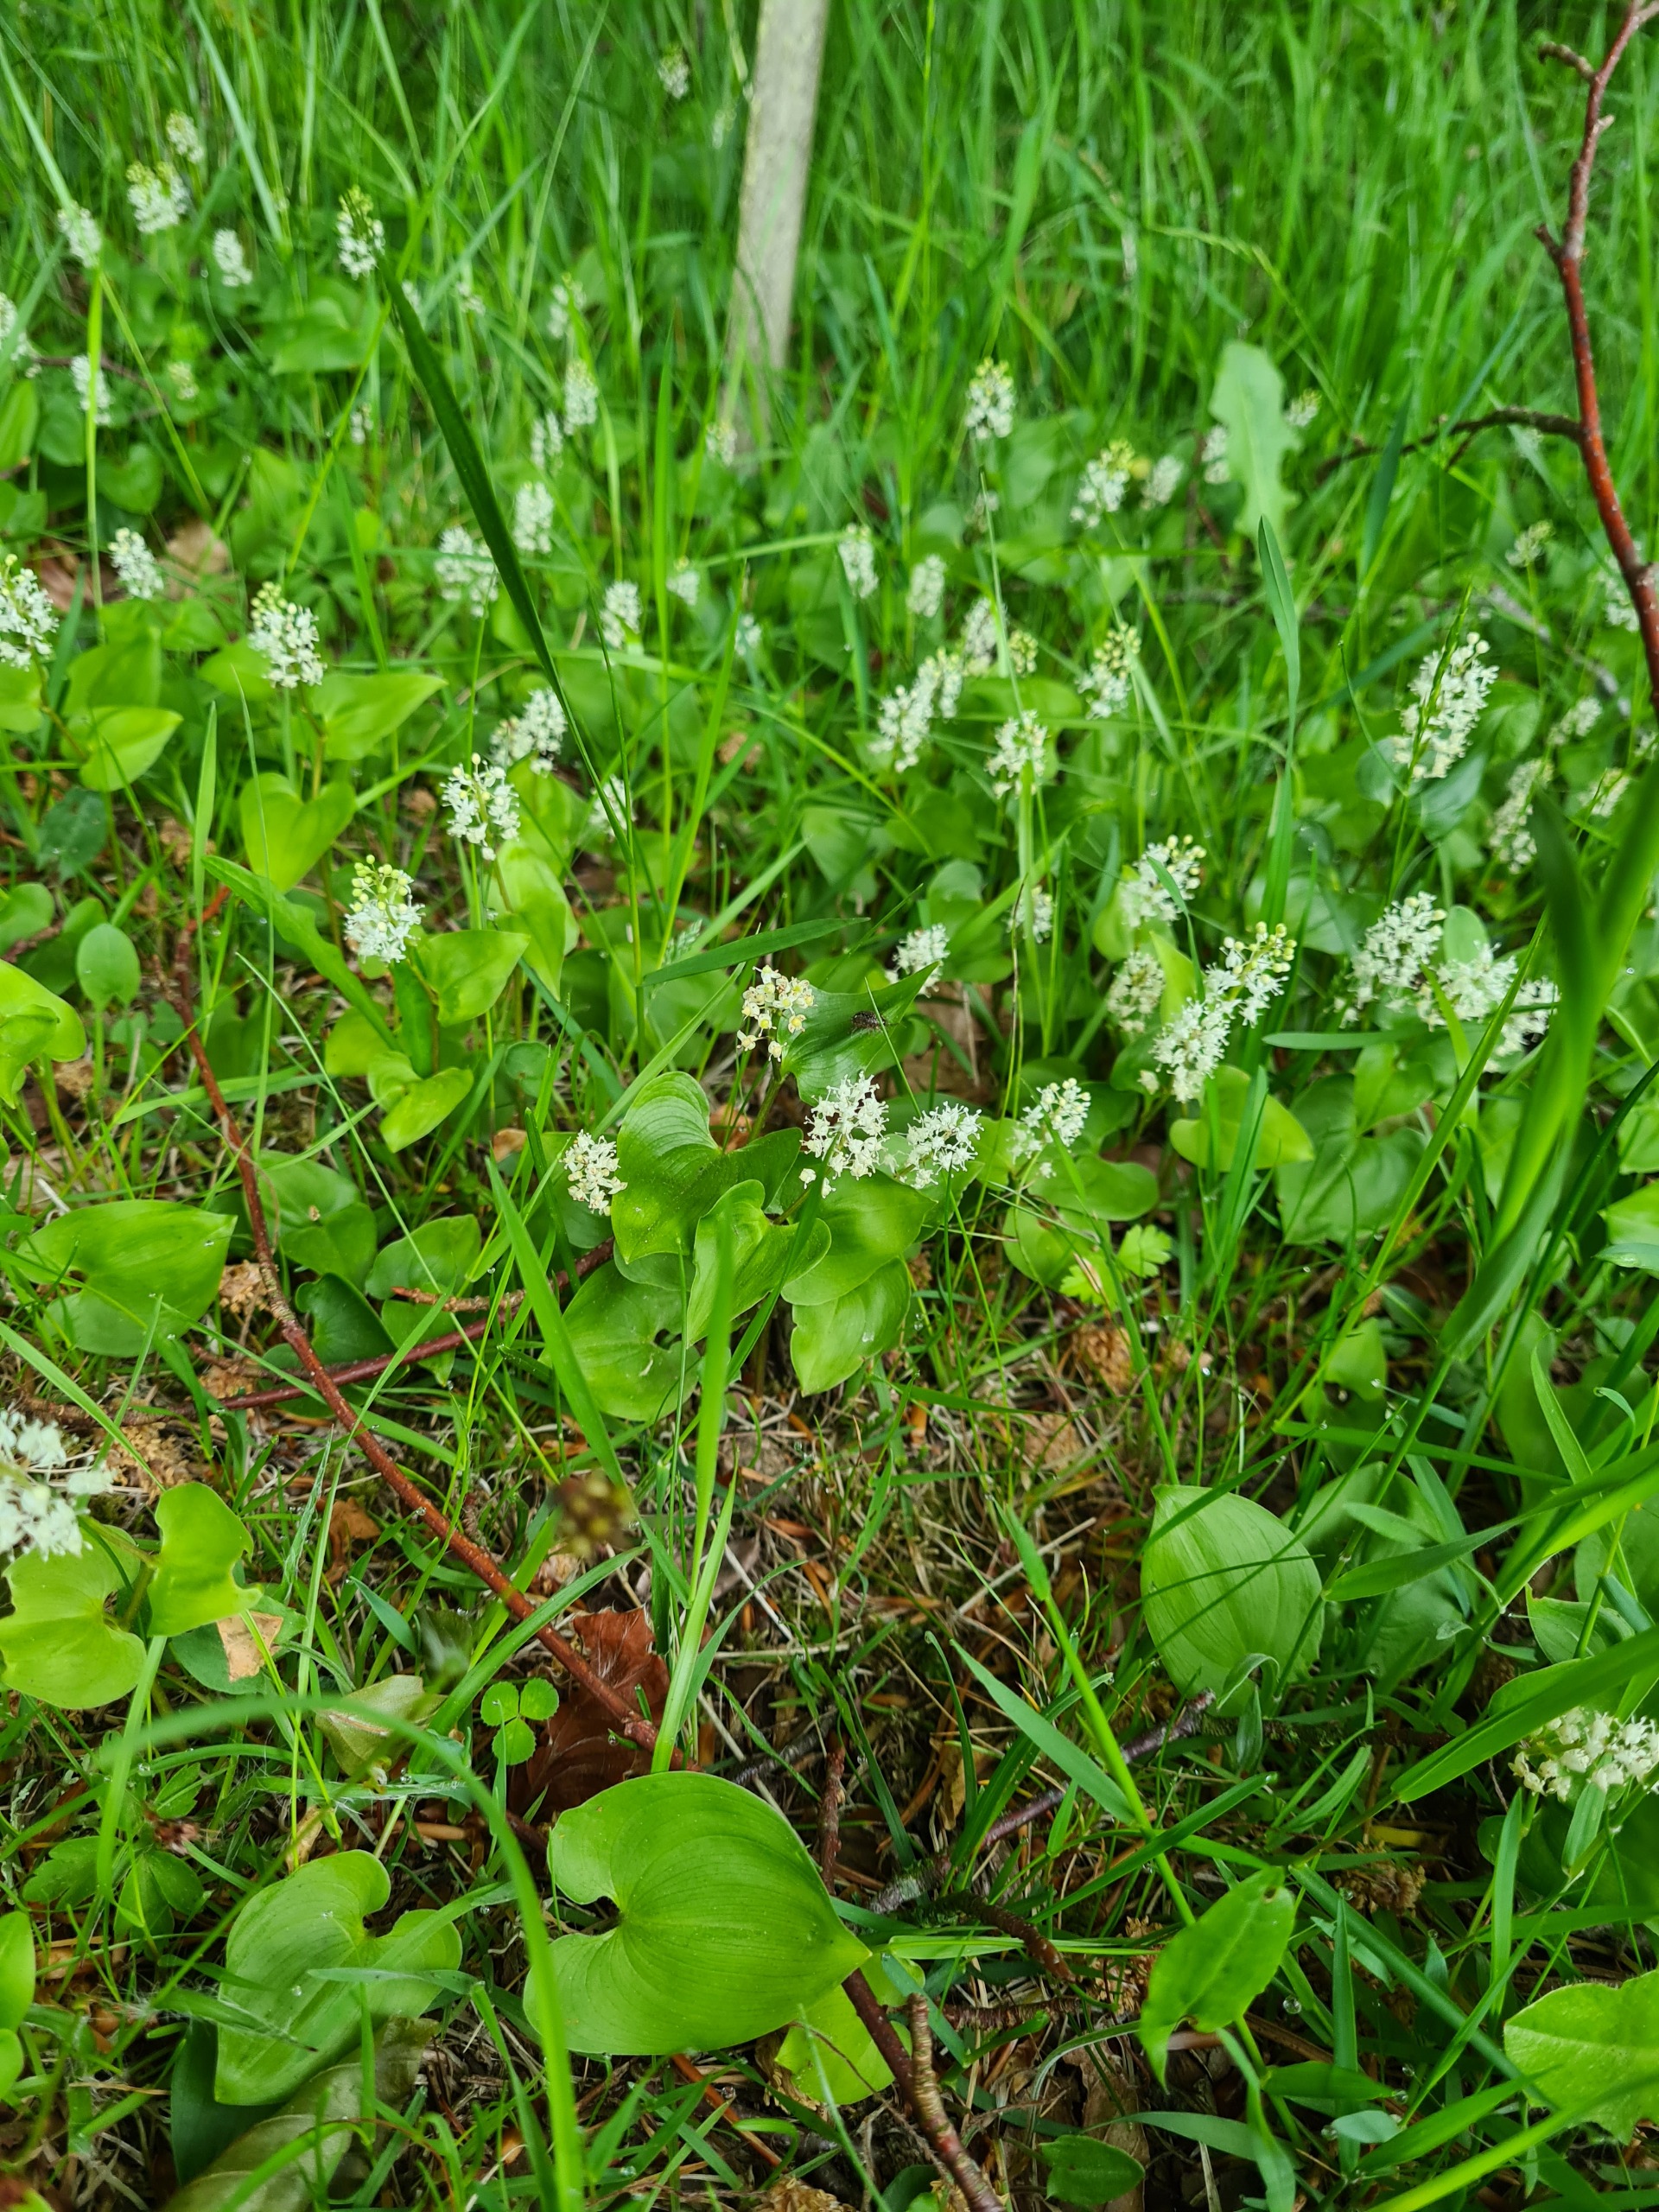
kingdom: Plantae
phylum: Tracheophyta
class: Liliopsida
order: Asparagales
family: Asparagaceae
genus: Maianthemum
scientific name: Maianthemum bifolium
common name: Majblomst
